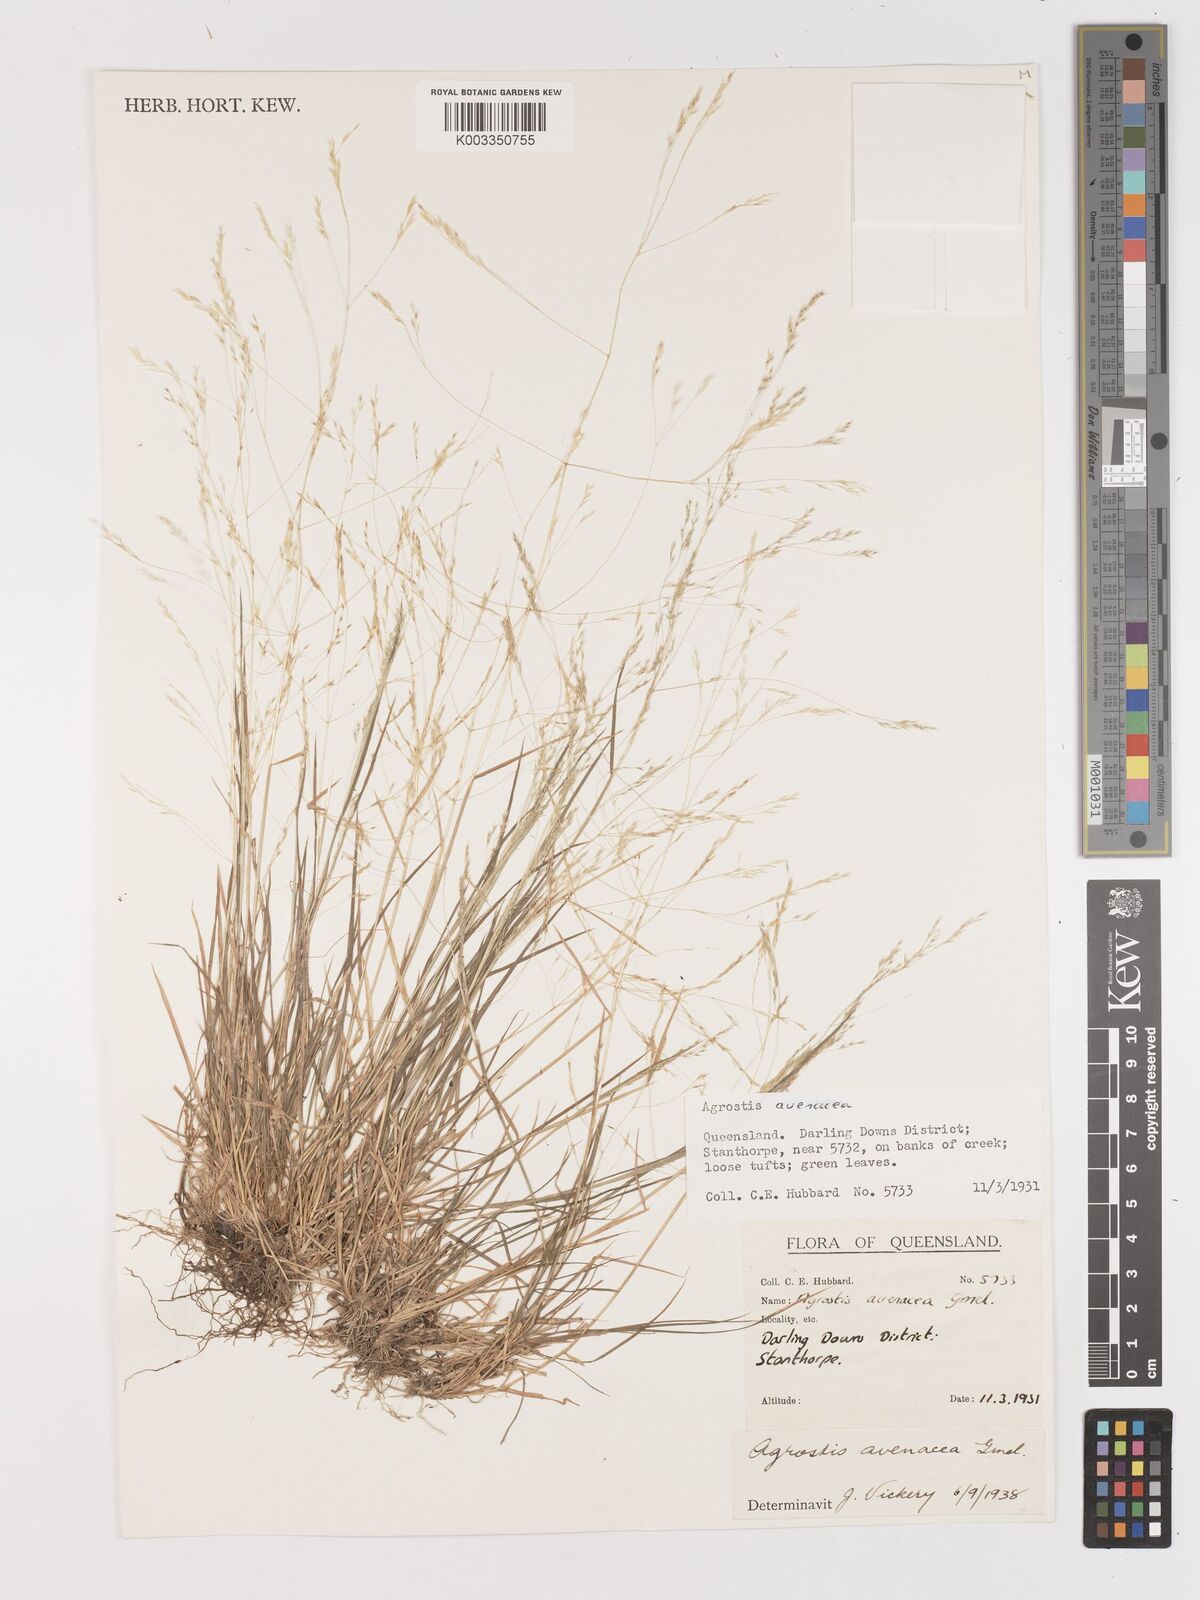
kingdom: Plantae
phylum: Tracheophyta
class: Liliopsida
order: Poales
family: Poaceae
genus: Lachnagrostis
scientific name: Lachnagrostis filiformis
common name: Bentgrass
